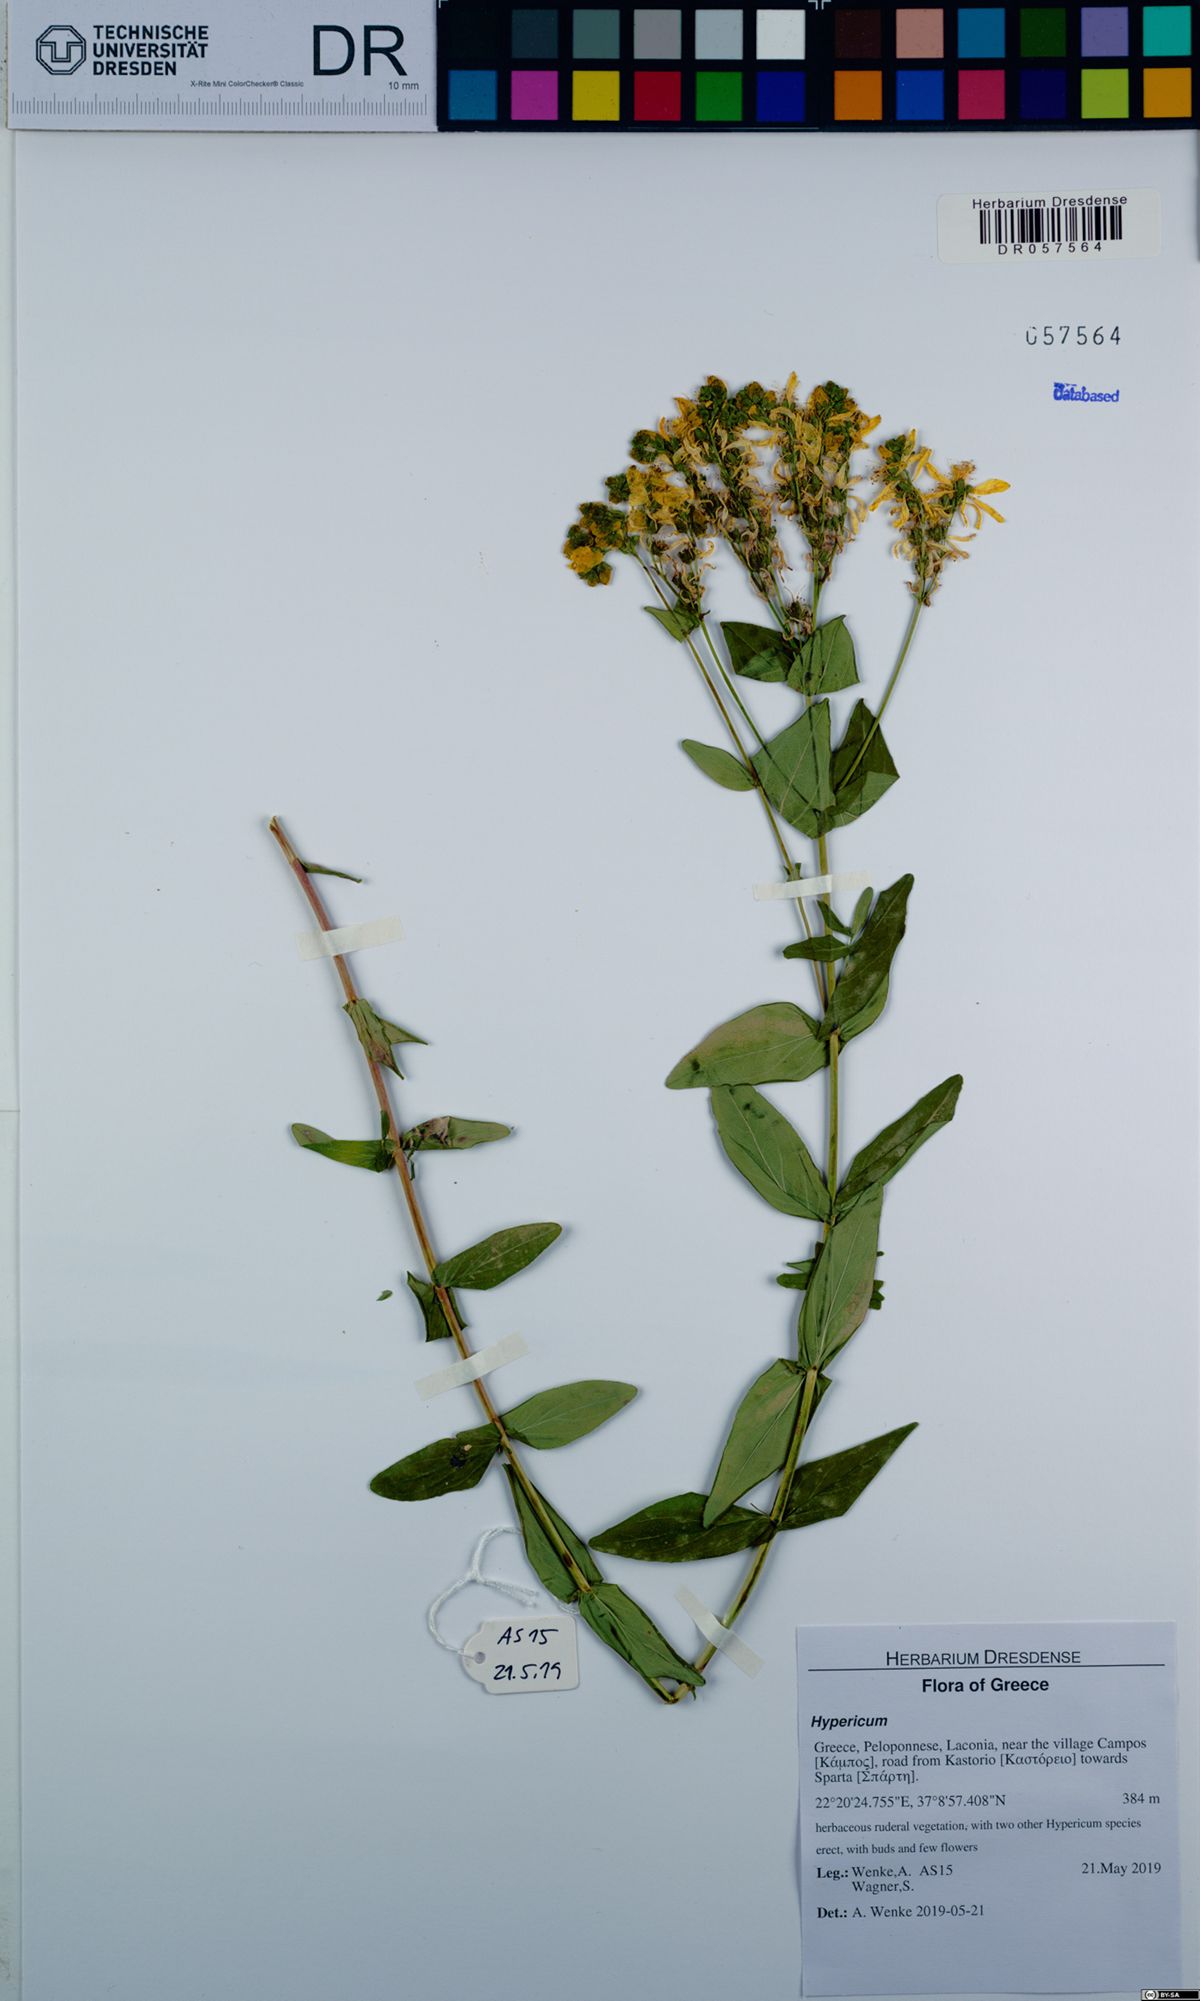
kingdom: Plantae
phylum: Tracheophyta
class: Magnoliopsida
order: Malpighiales
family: Hypericaceae
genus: Hypericum
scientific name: Hypericum perfoliatum
